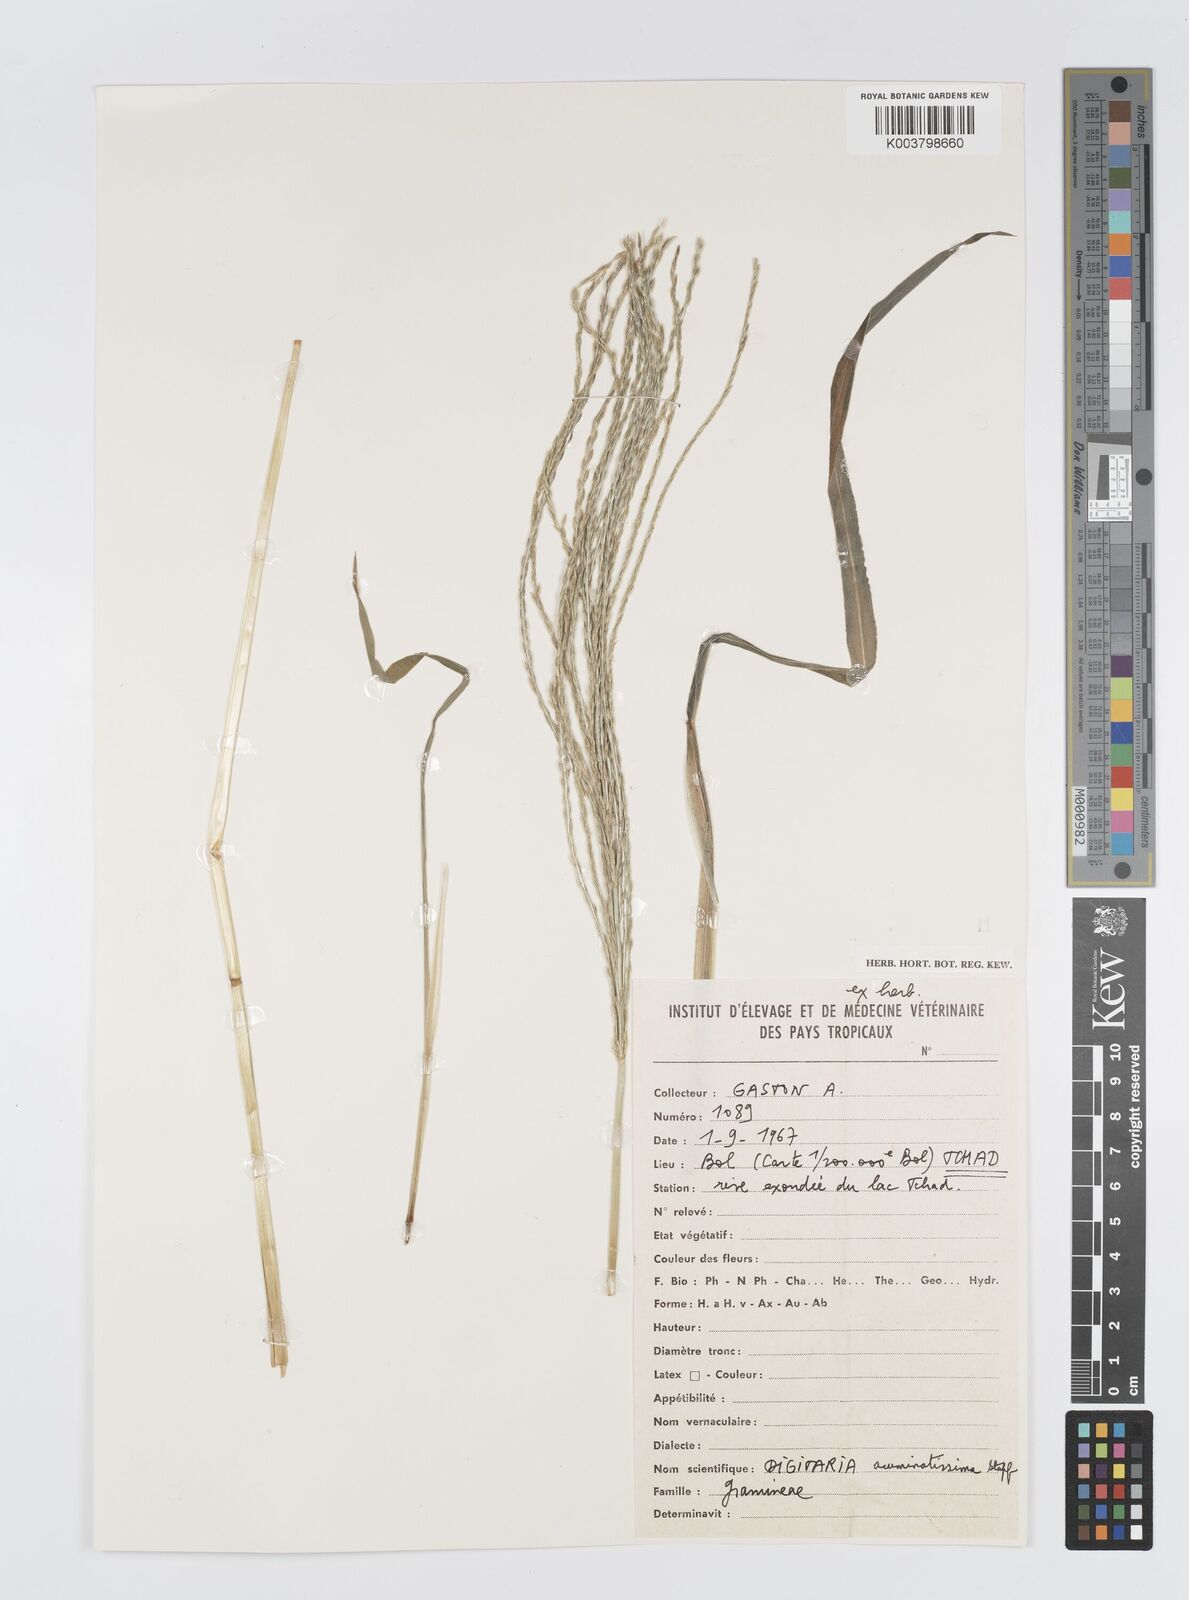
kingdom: Plantae
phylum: Tracheophyta
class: Liliopsida
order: Poales
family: Poaceae
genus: Digitaria
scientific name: Digitaria acuminatissima
